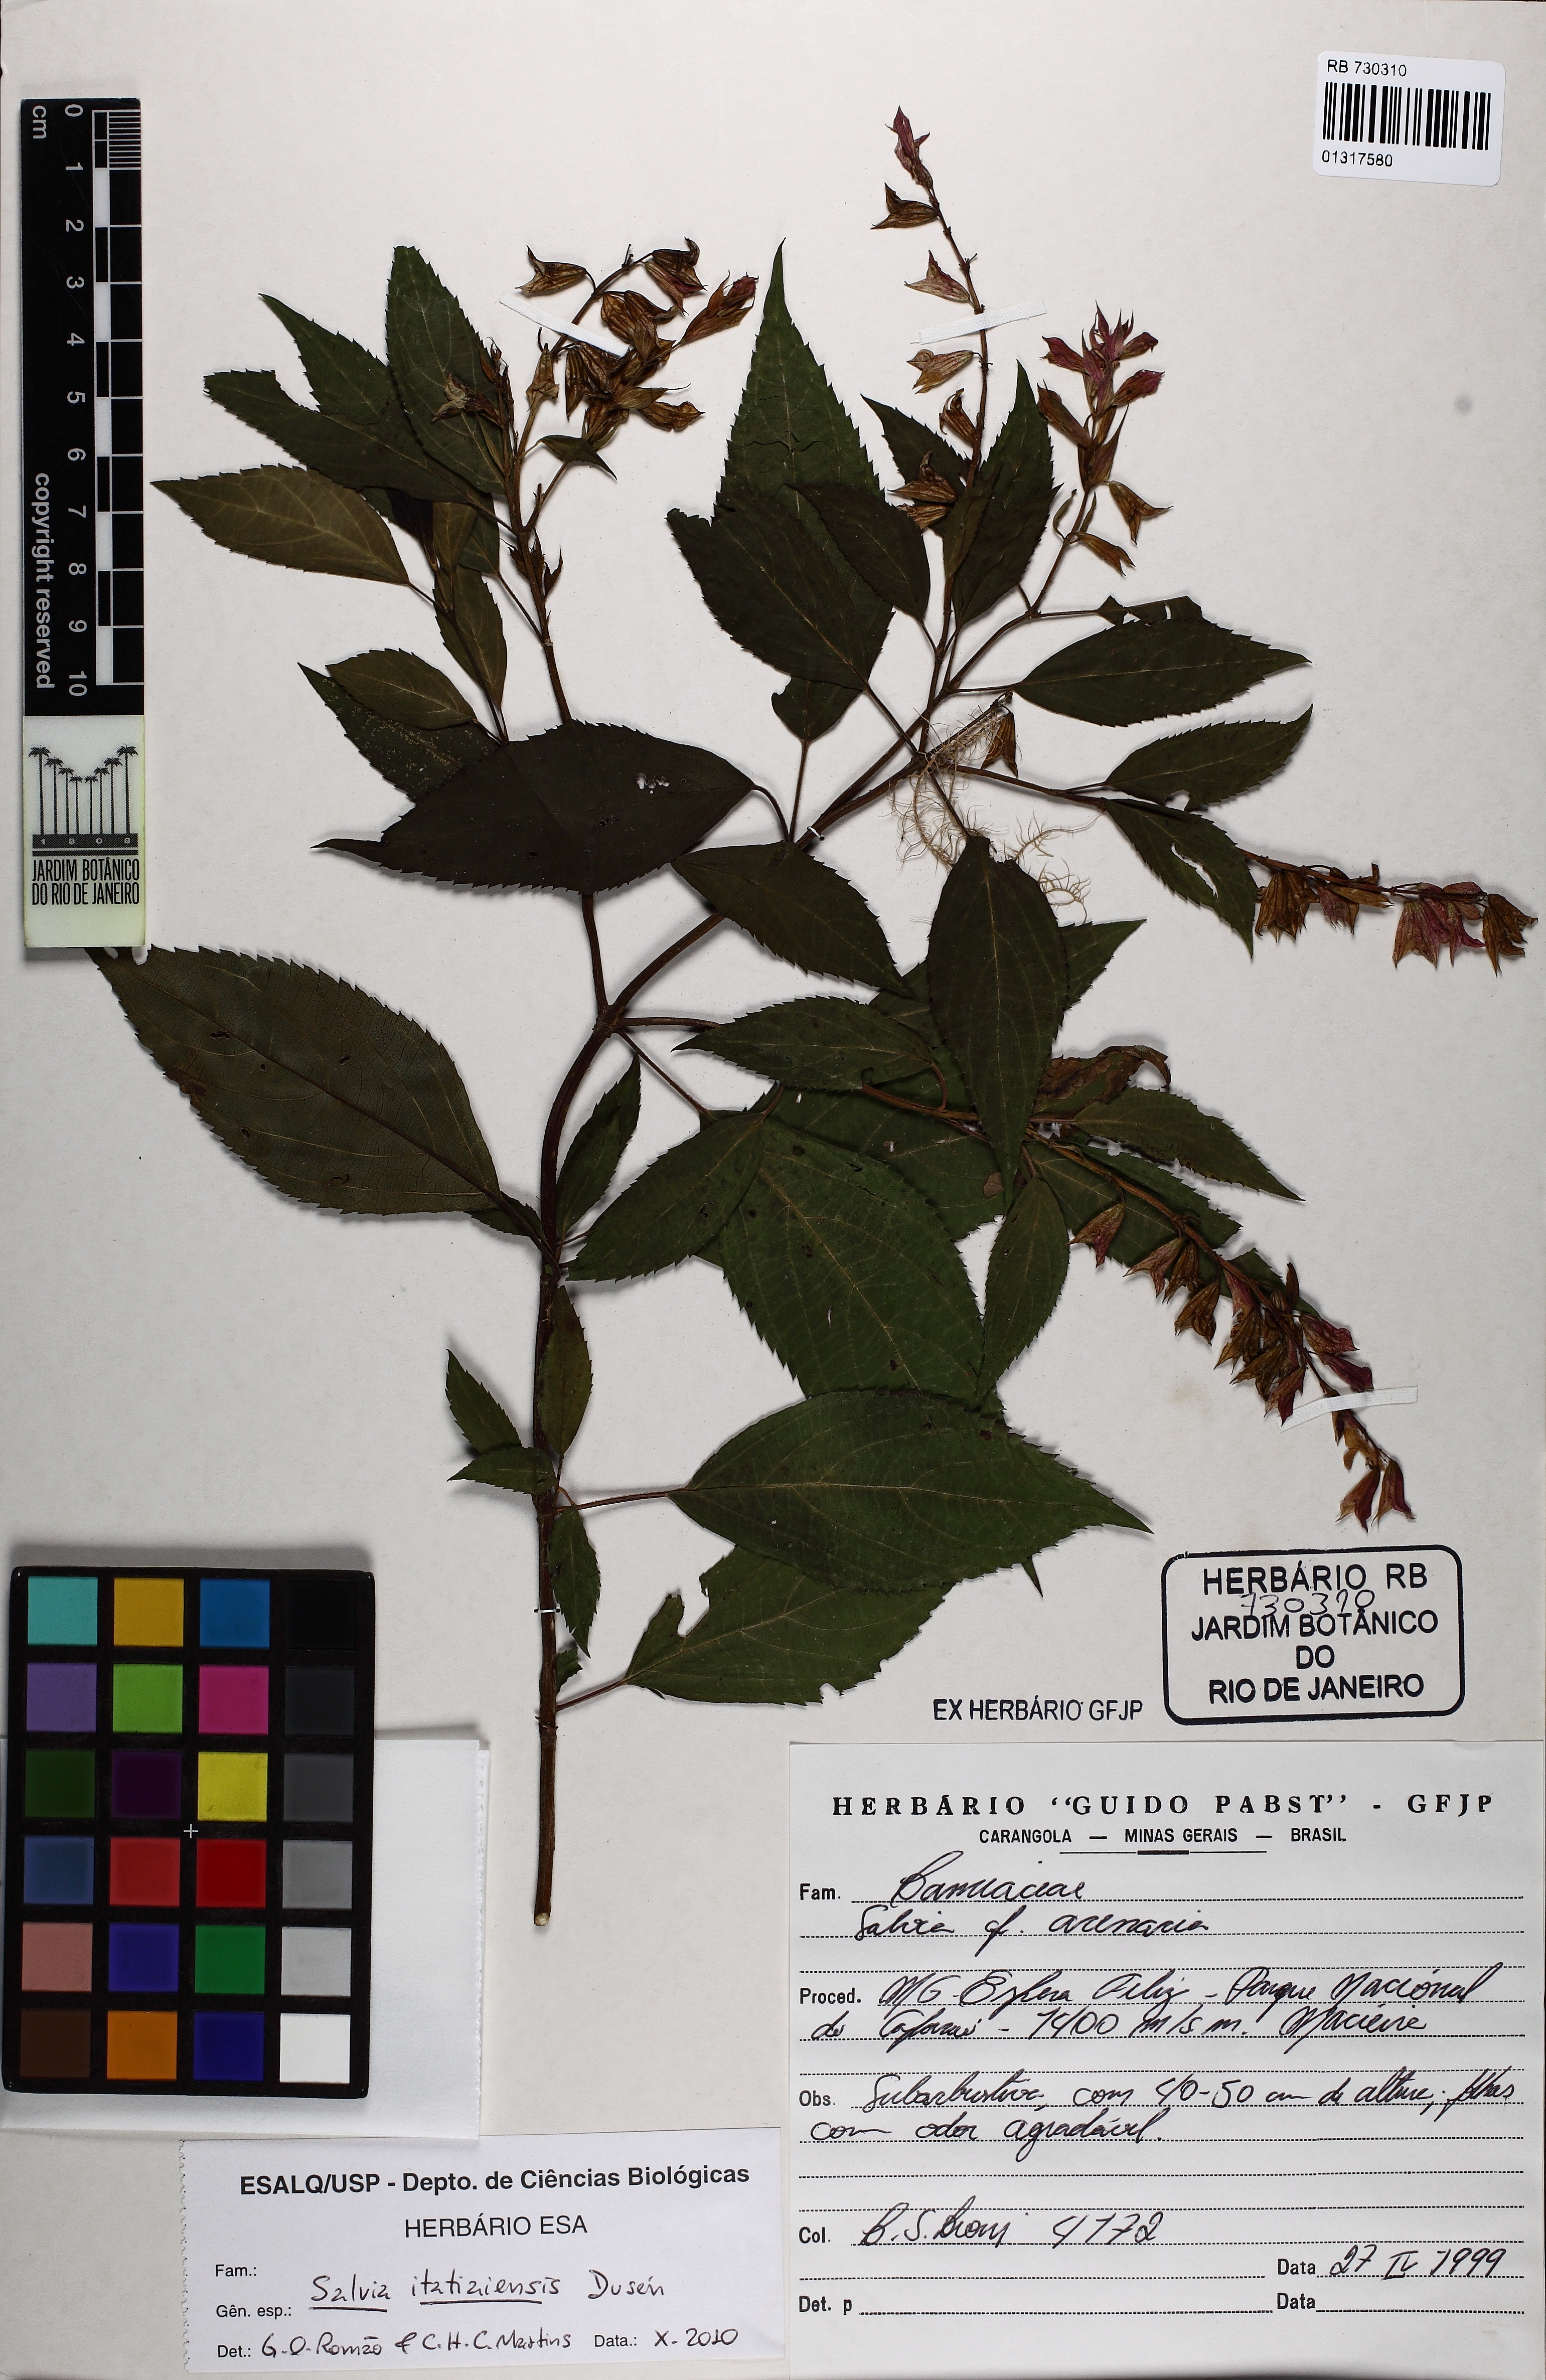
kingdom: Plantae
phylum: Tracheophyta
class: Magnoliopsida
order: Lamiales
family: Lamiaceae
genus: Salvia
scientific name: Salvia arenaria
